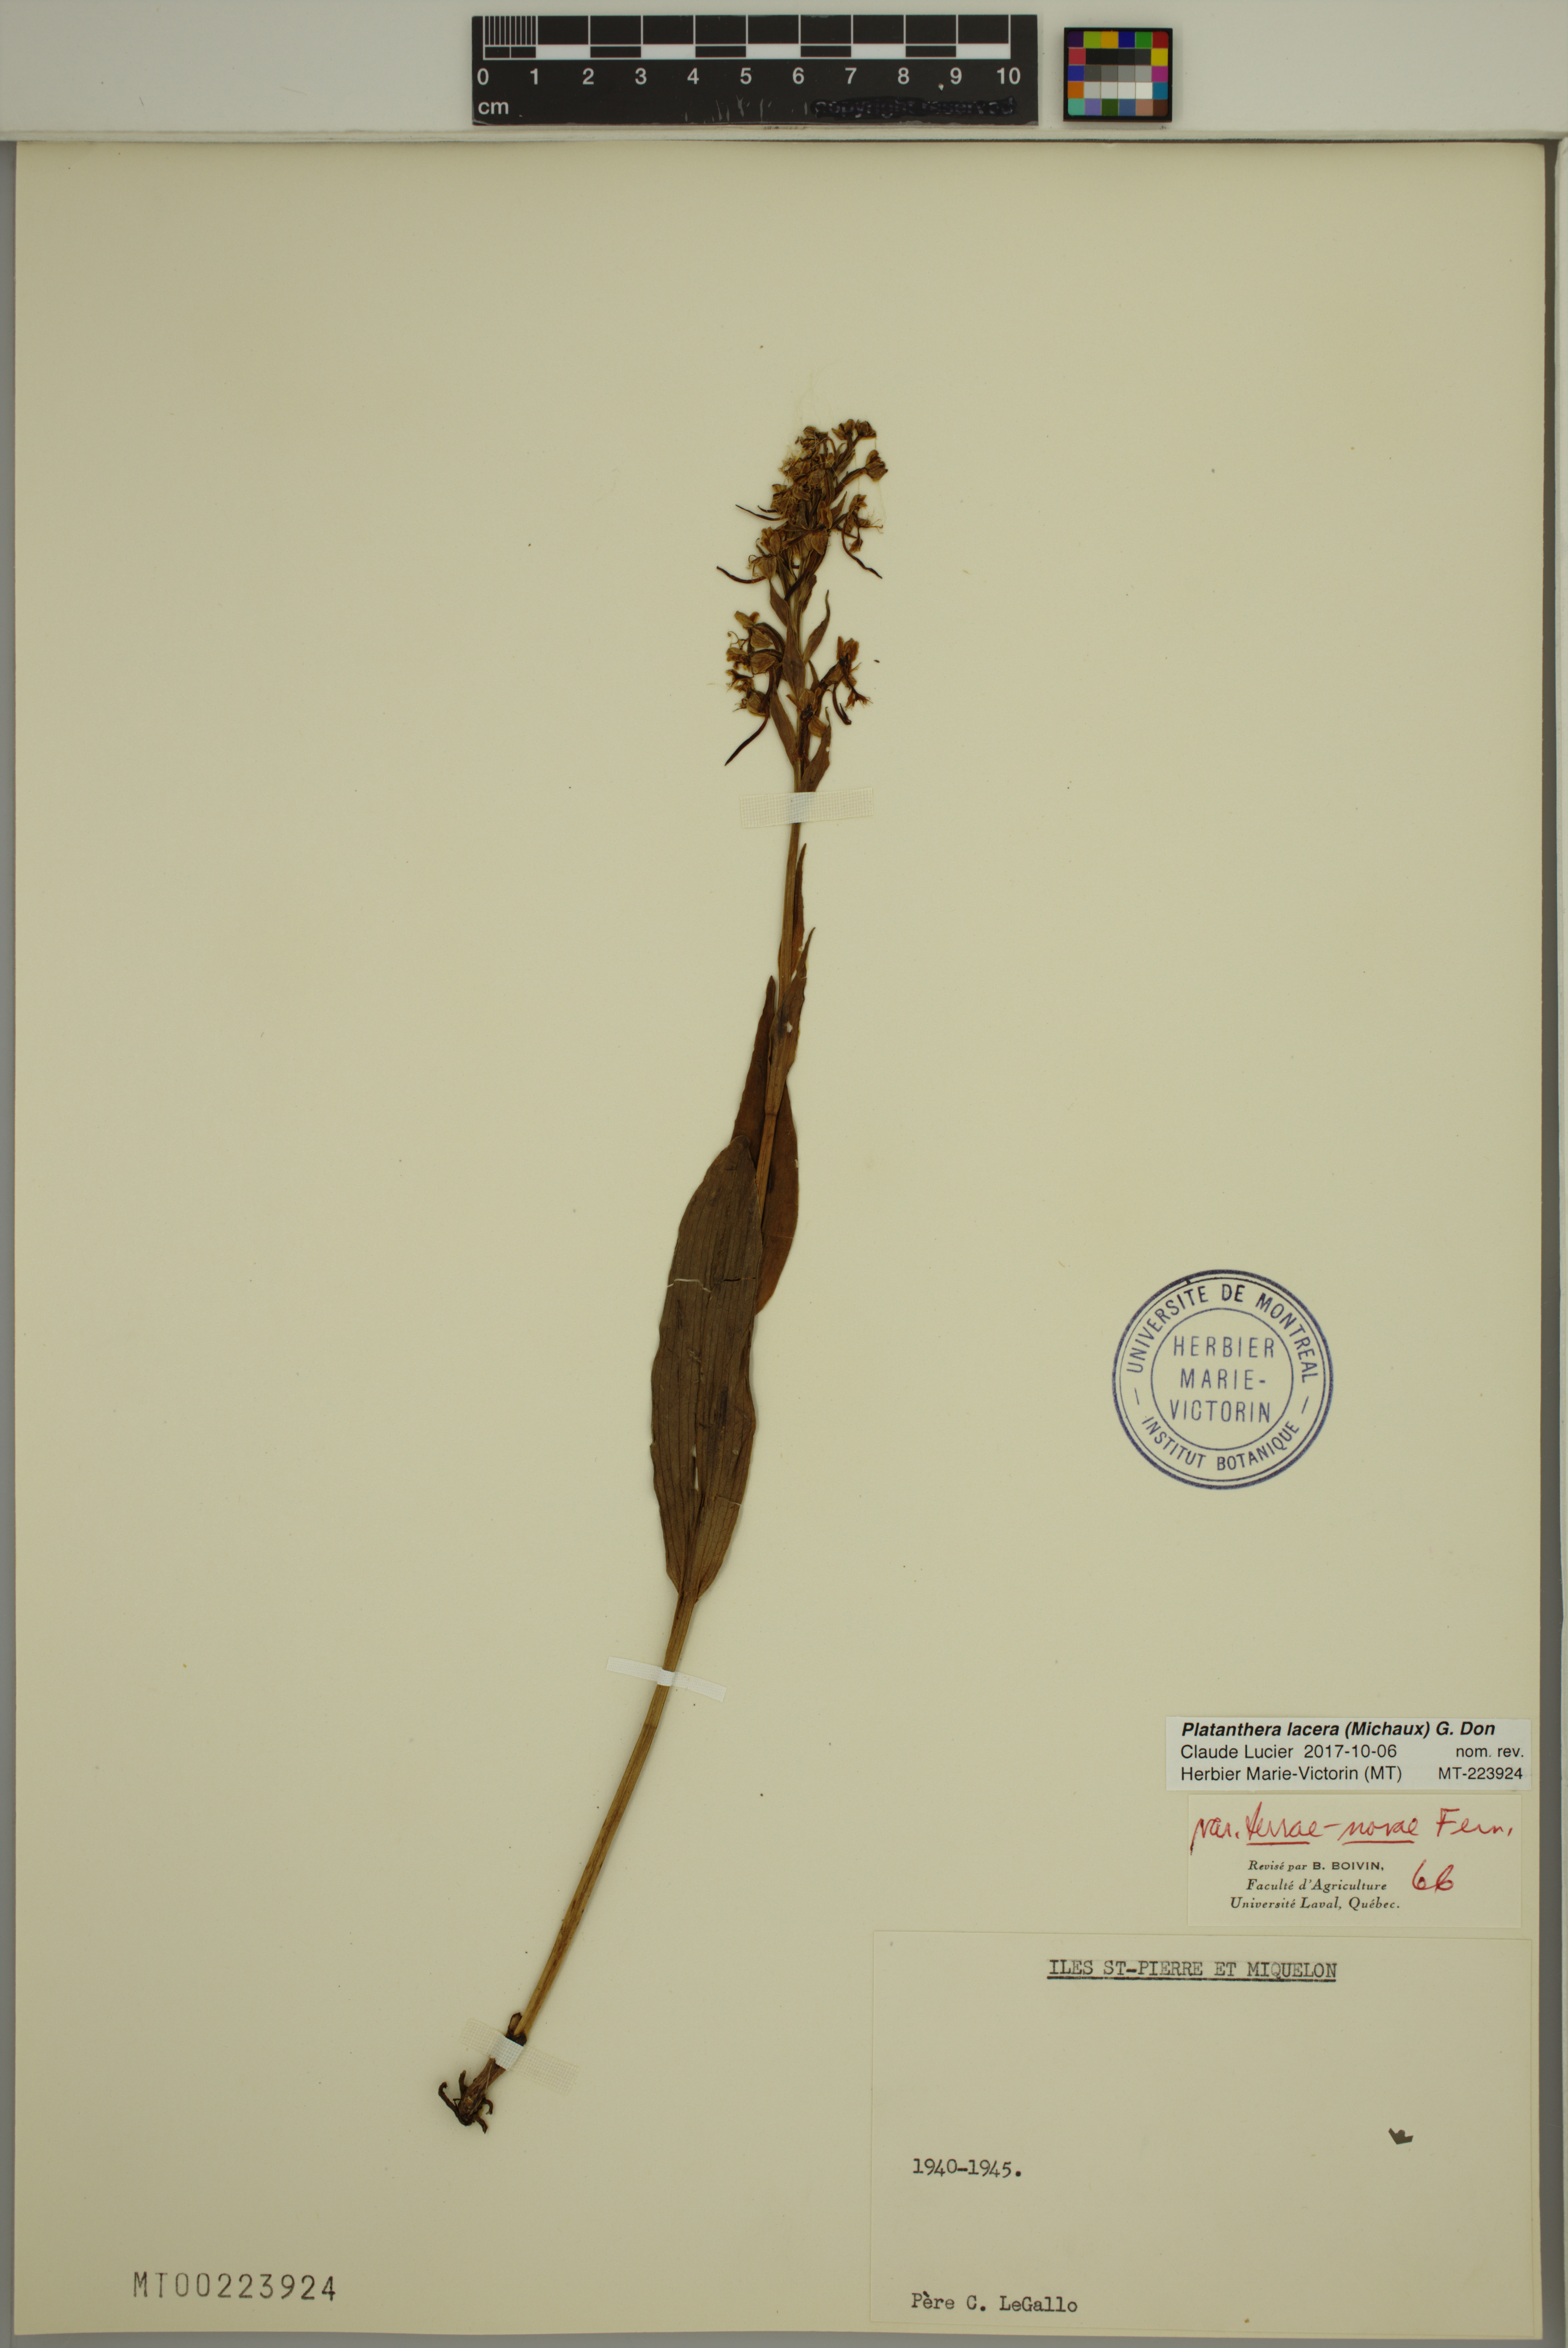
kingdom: Plantae
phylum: Tracheophyta
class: Liliopsida
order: Asparagales
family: Orchidaceae
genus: Platanthera
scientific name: Platanthera lacera
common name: Green fringed orchid
